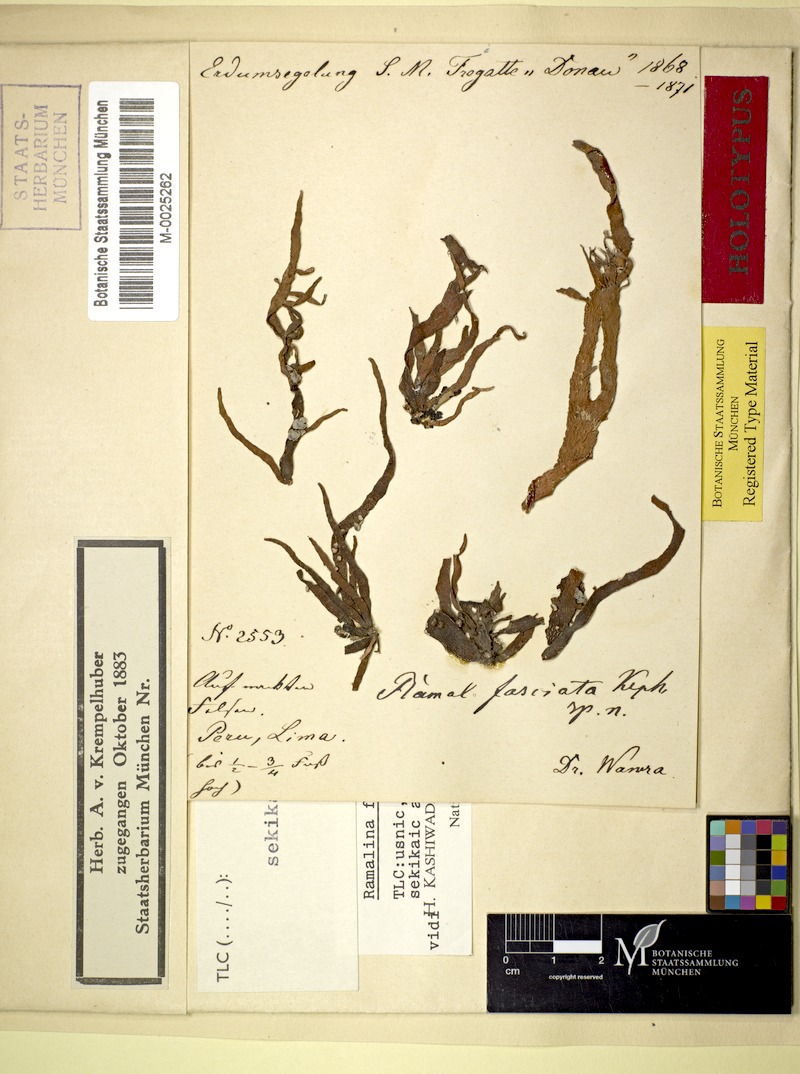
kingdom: Fungi
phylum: Ascomycota
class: Lecanoromycetes
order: Lecanorales
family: Ramalinaceae
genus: Ramalina
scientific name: Ramalina
